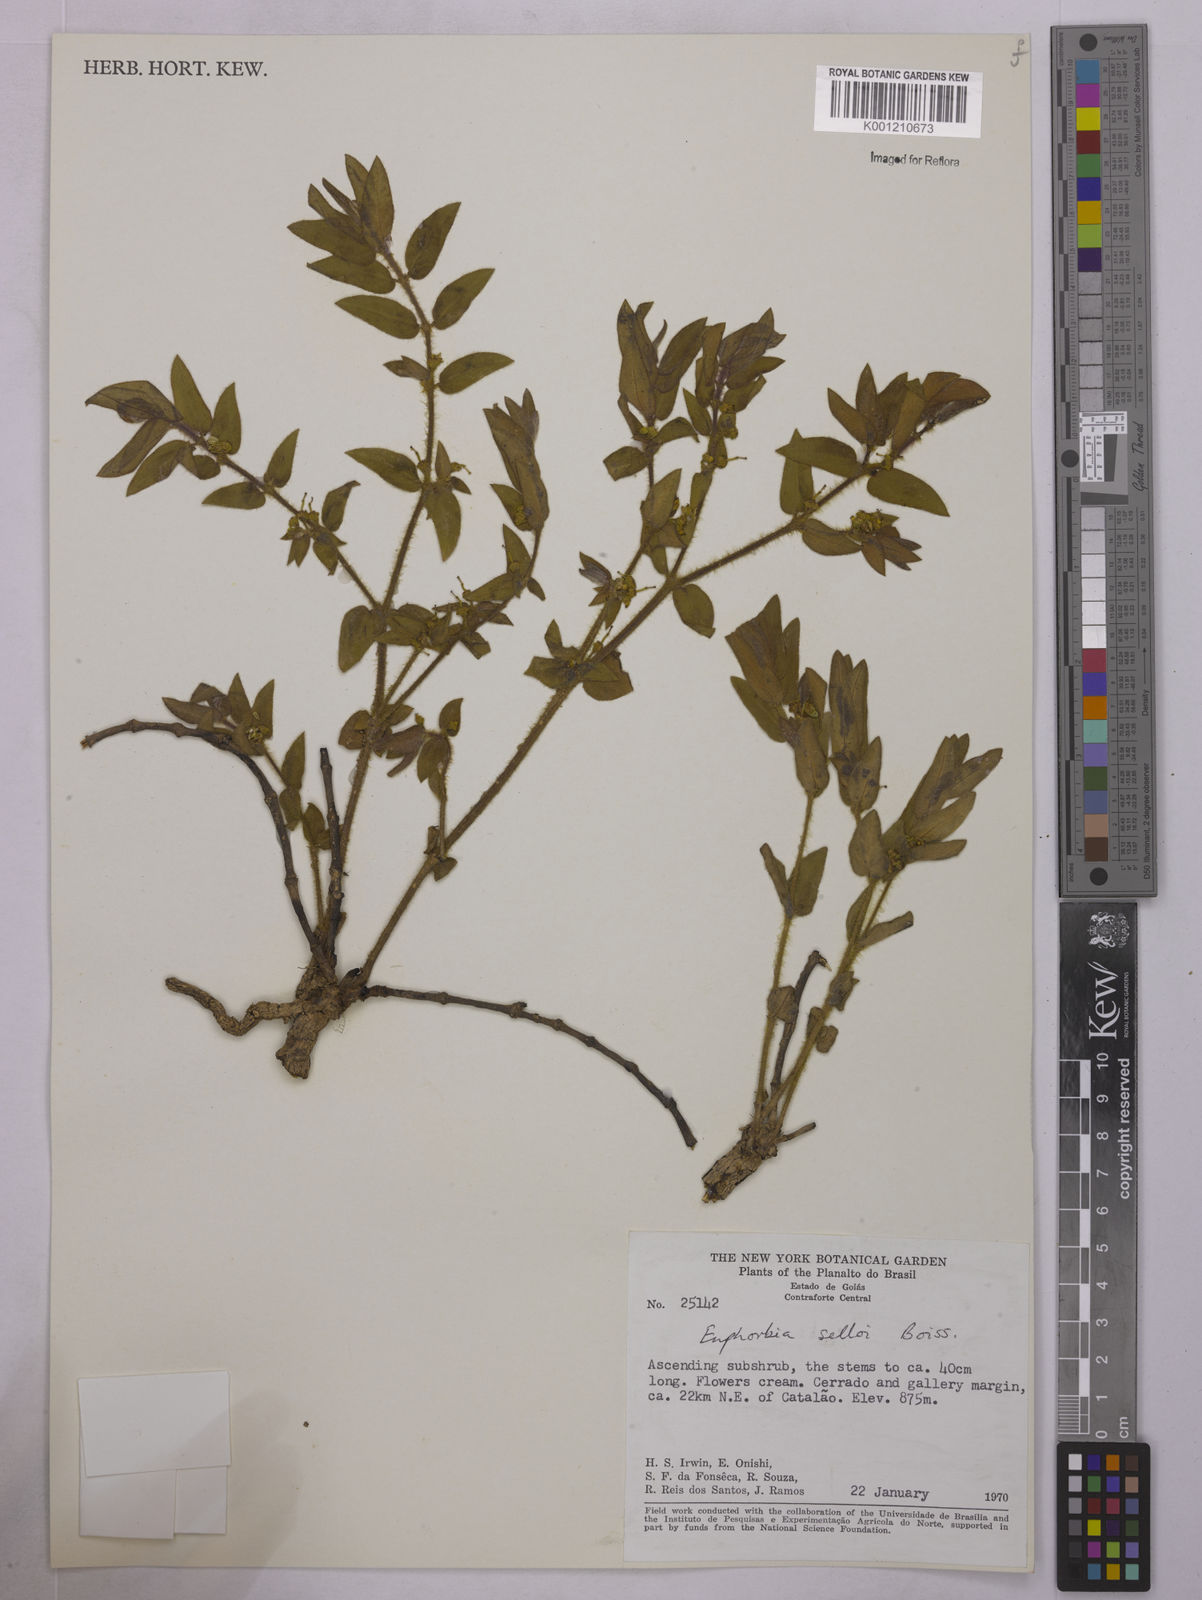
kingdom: Plantae
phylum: Tracheophyta
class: Magnoliopsida
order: Malpighiales
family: Euphorbiaceae
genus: Euphorbia
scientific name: Euphorbia selloi
